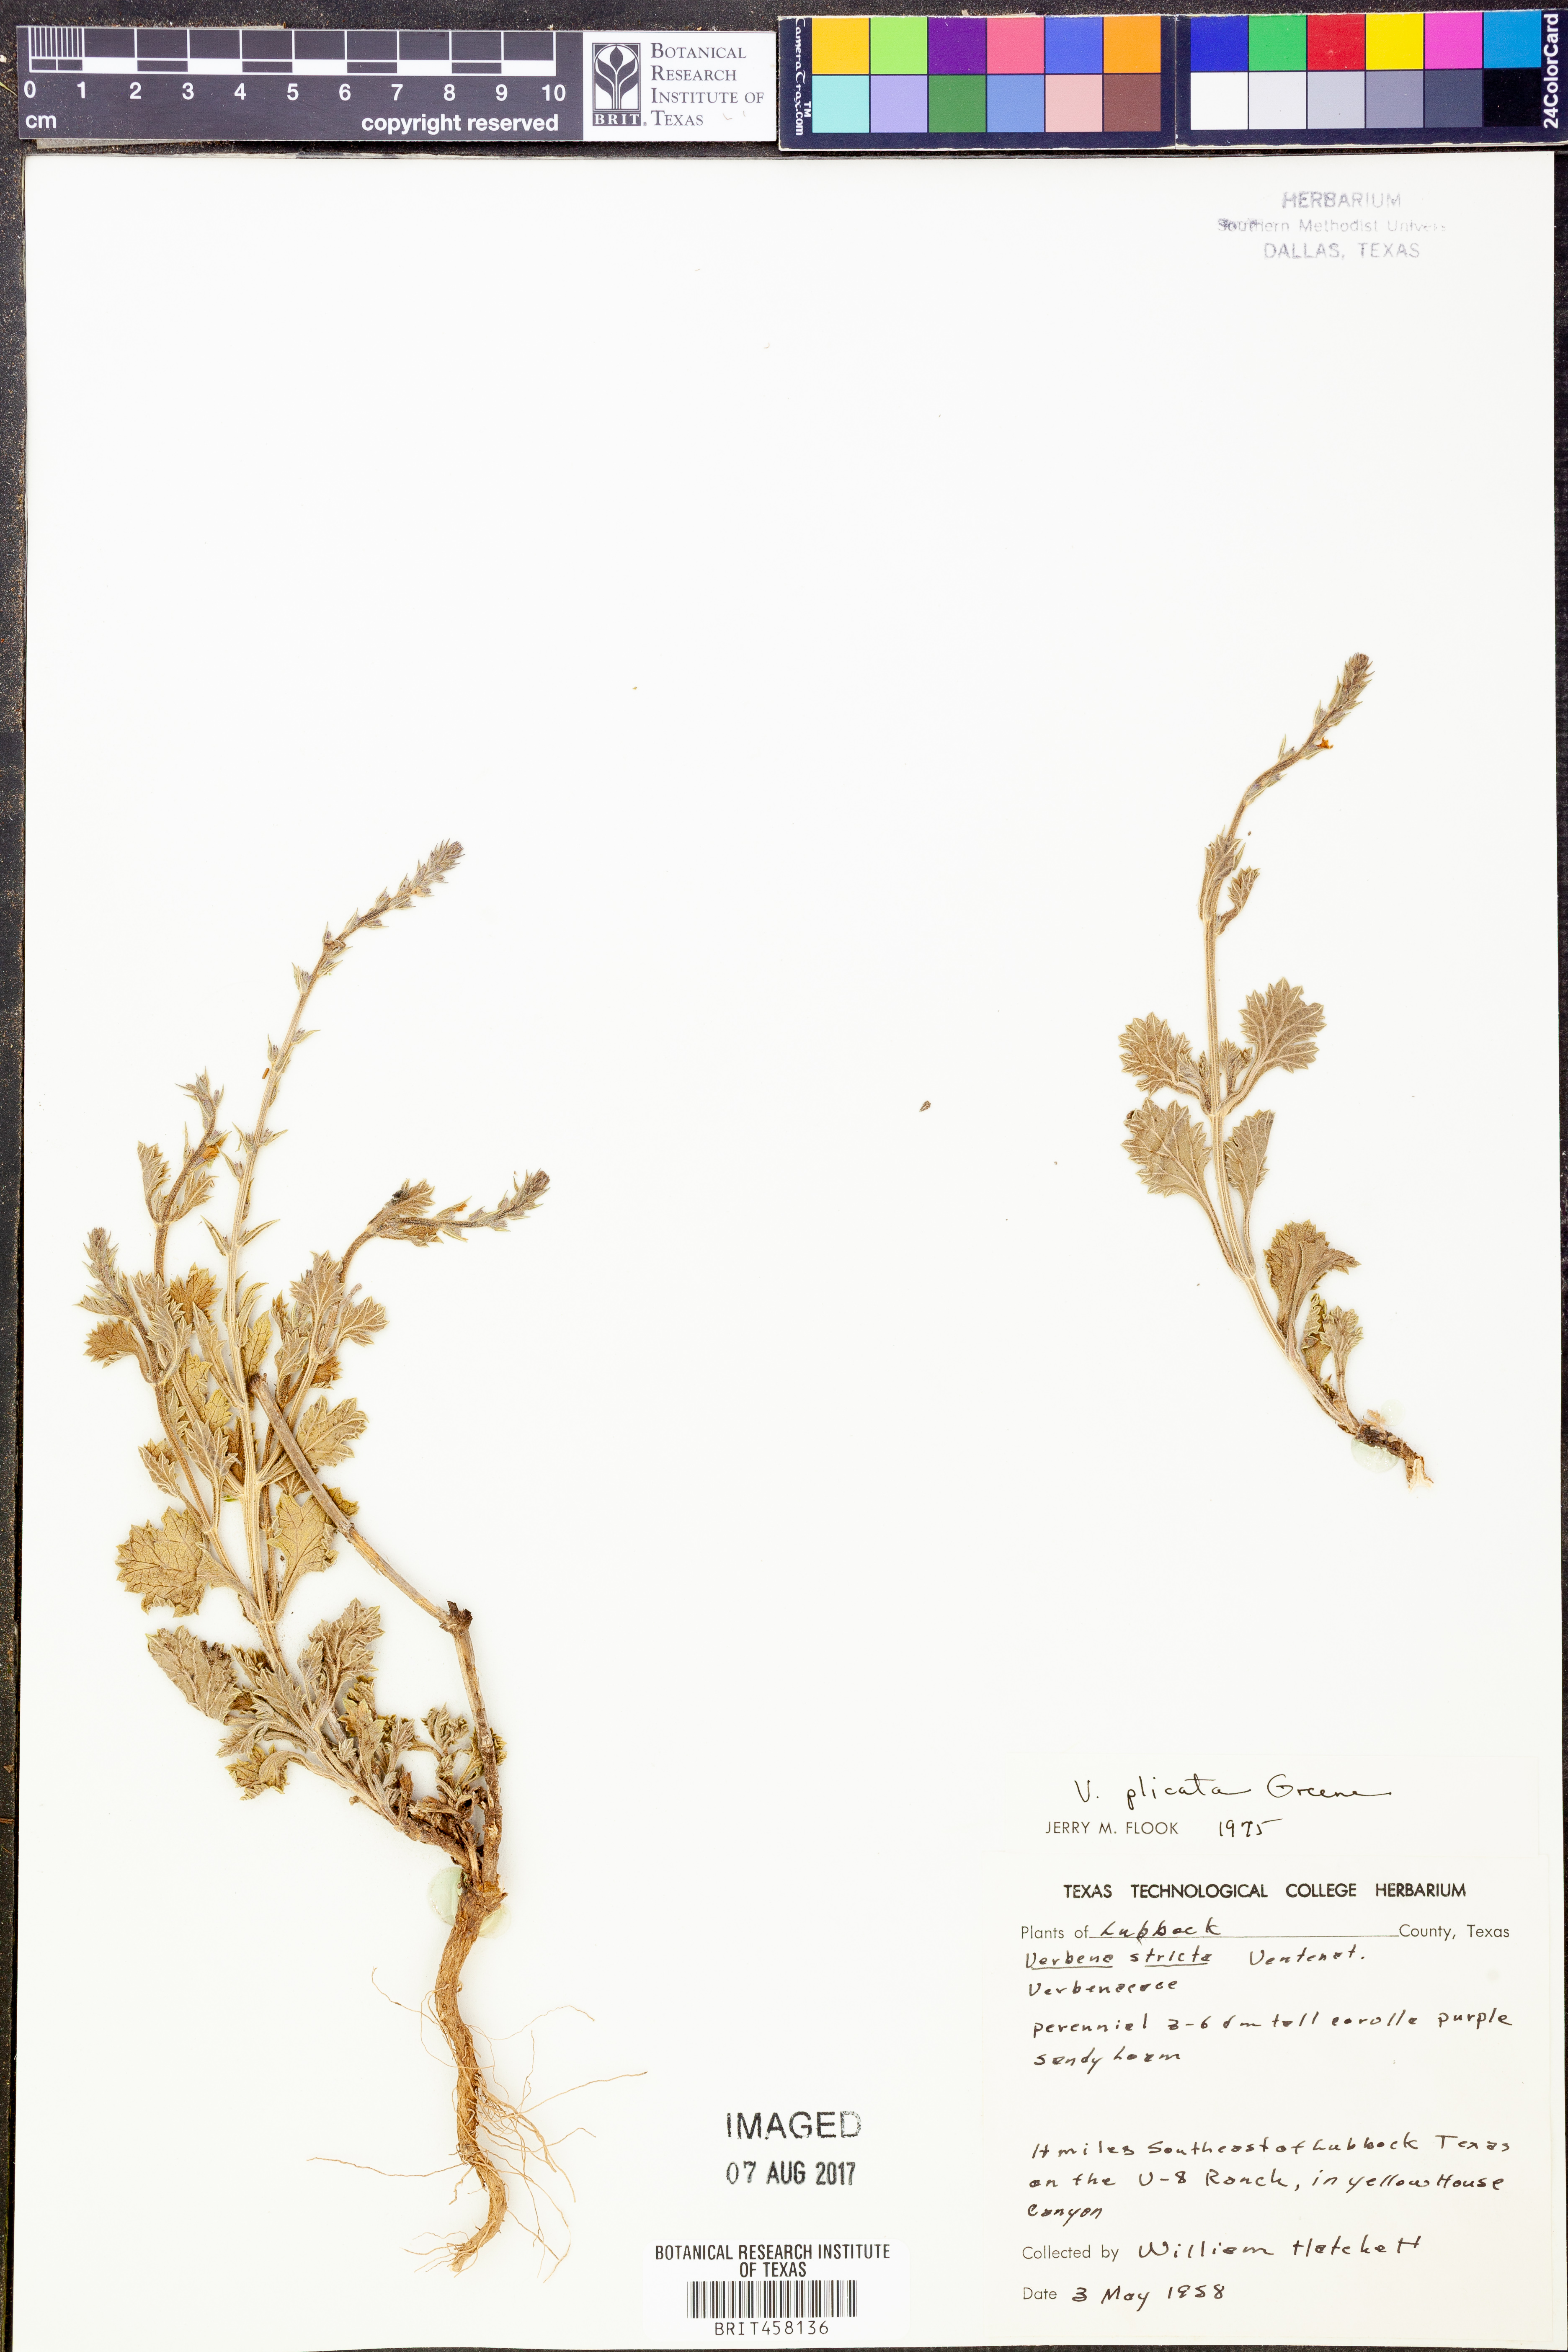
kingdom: Plantae
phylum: Tracheophyta
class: Magnoliopsida
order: Lamiales
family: Verbenaceae
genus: Verbena
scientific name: Verbena plicata
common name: Fan-leaf vervain
